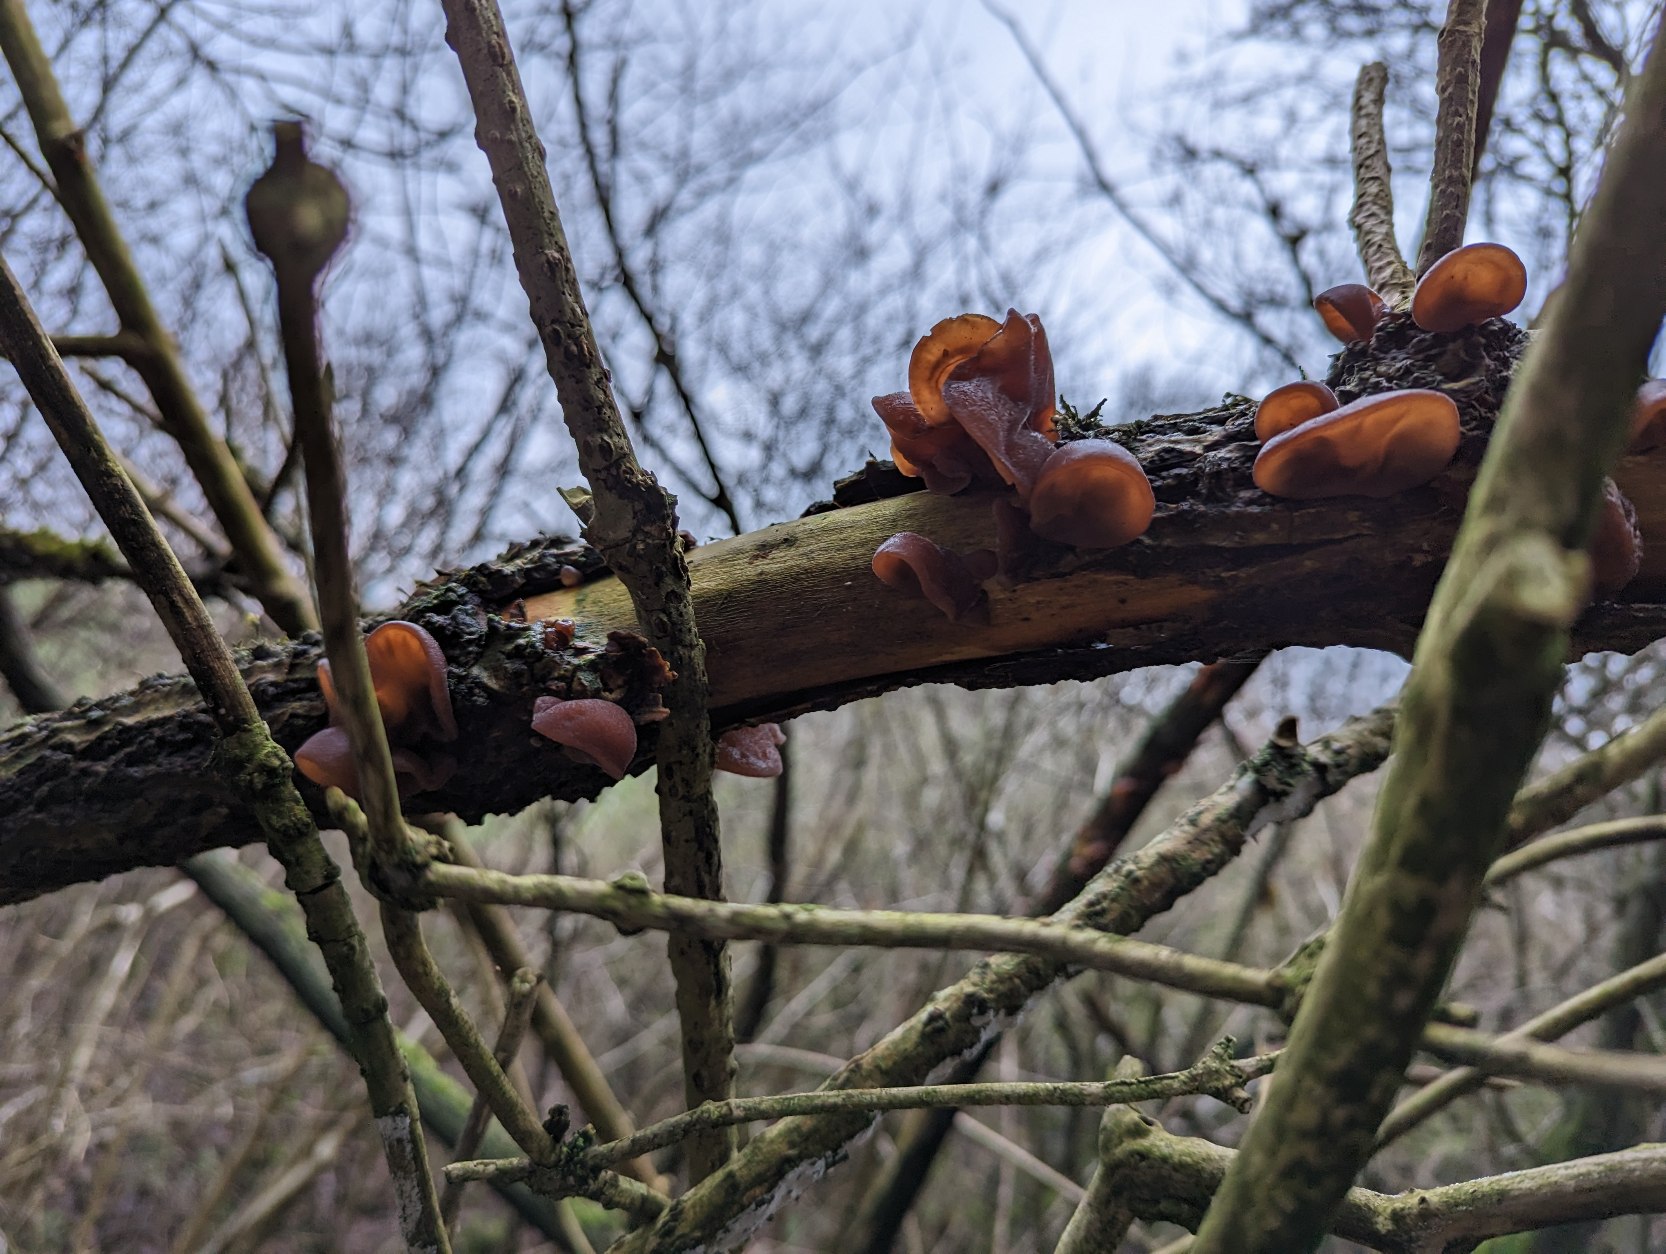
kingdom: Fungi
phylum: Basidiomycota
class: Agaricomycetes
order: Auriculariales
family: Auriculariaceae
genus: Auricularia
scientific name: Auricularia auricula-judae
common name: Almindelig judasøre
